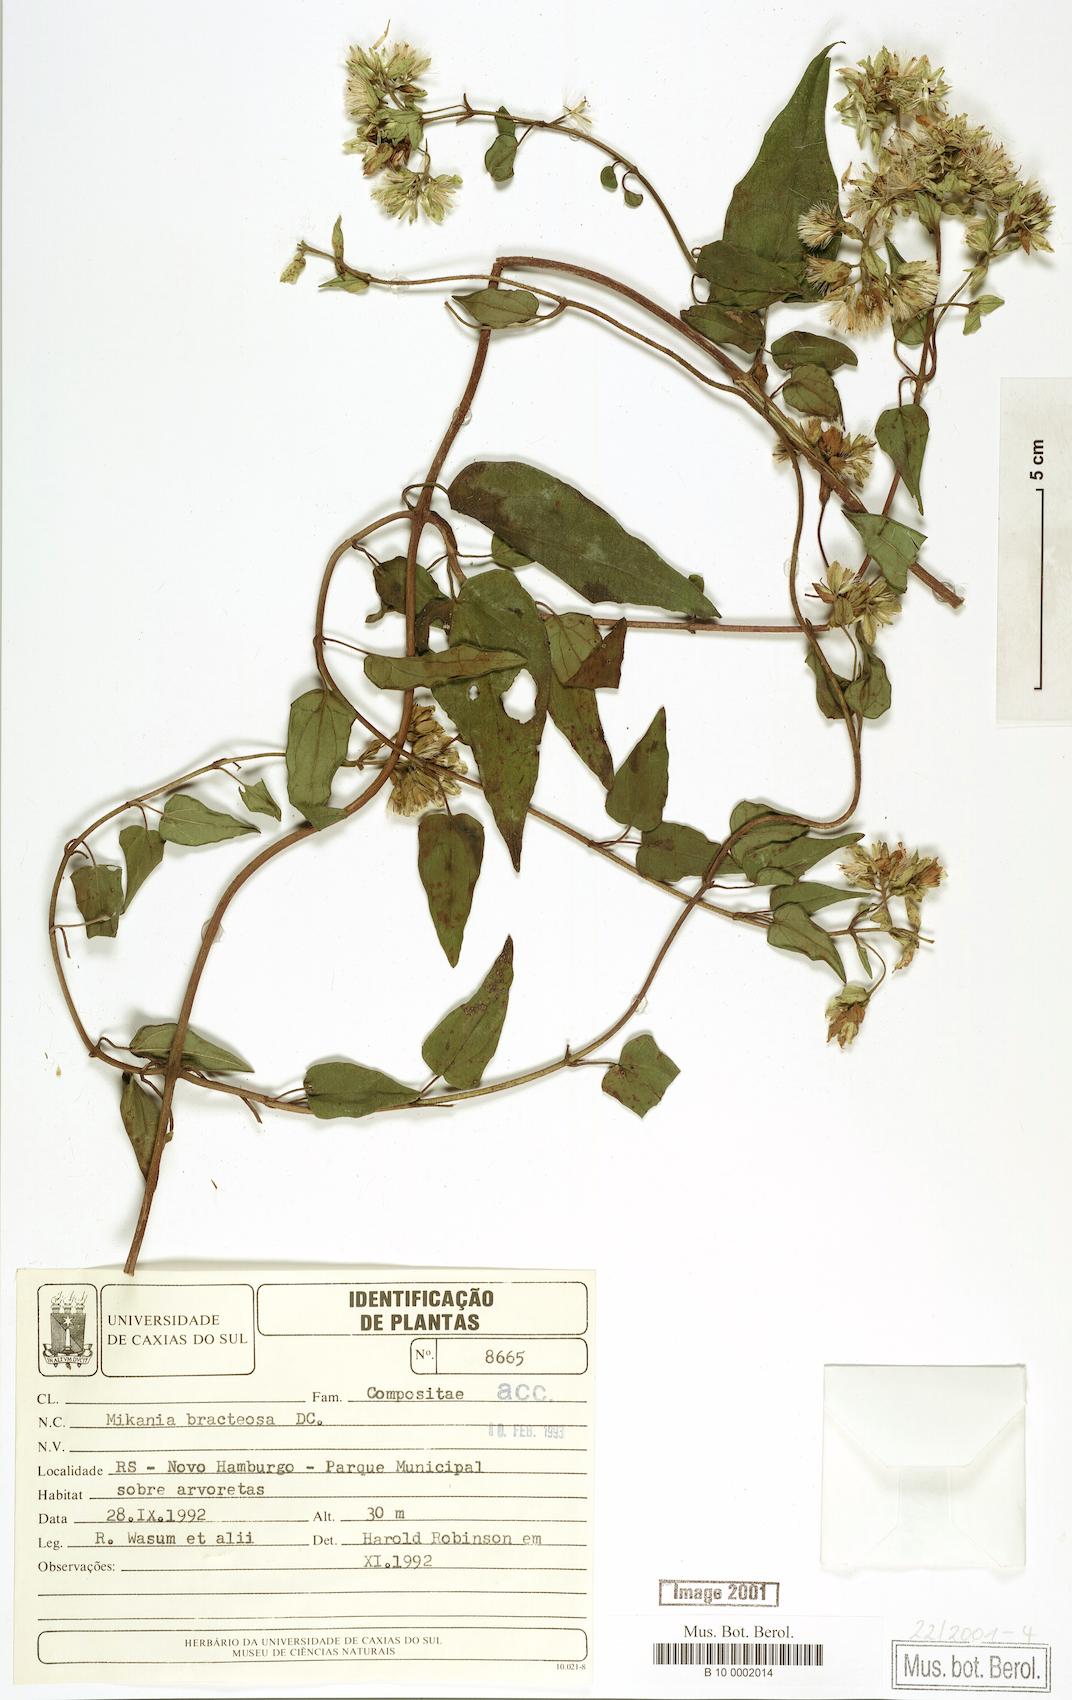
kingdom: Plantae
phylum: Tracheophyta
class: Magnoliopsida
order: Asterales
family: Asteraceae
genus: Mikania
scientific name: Mikania involucrata
